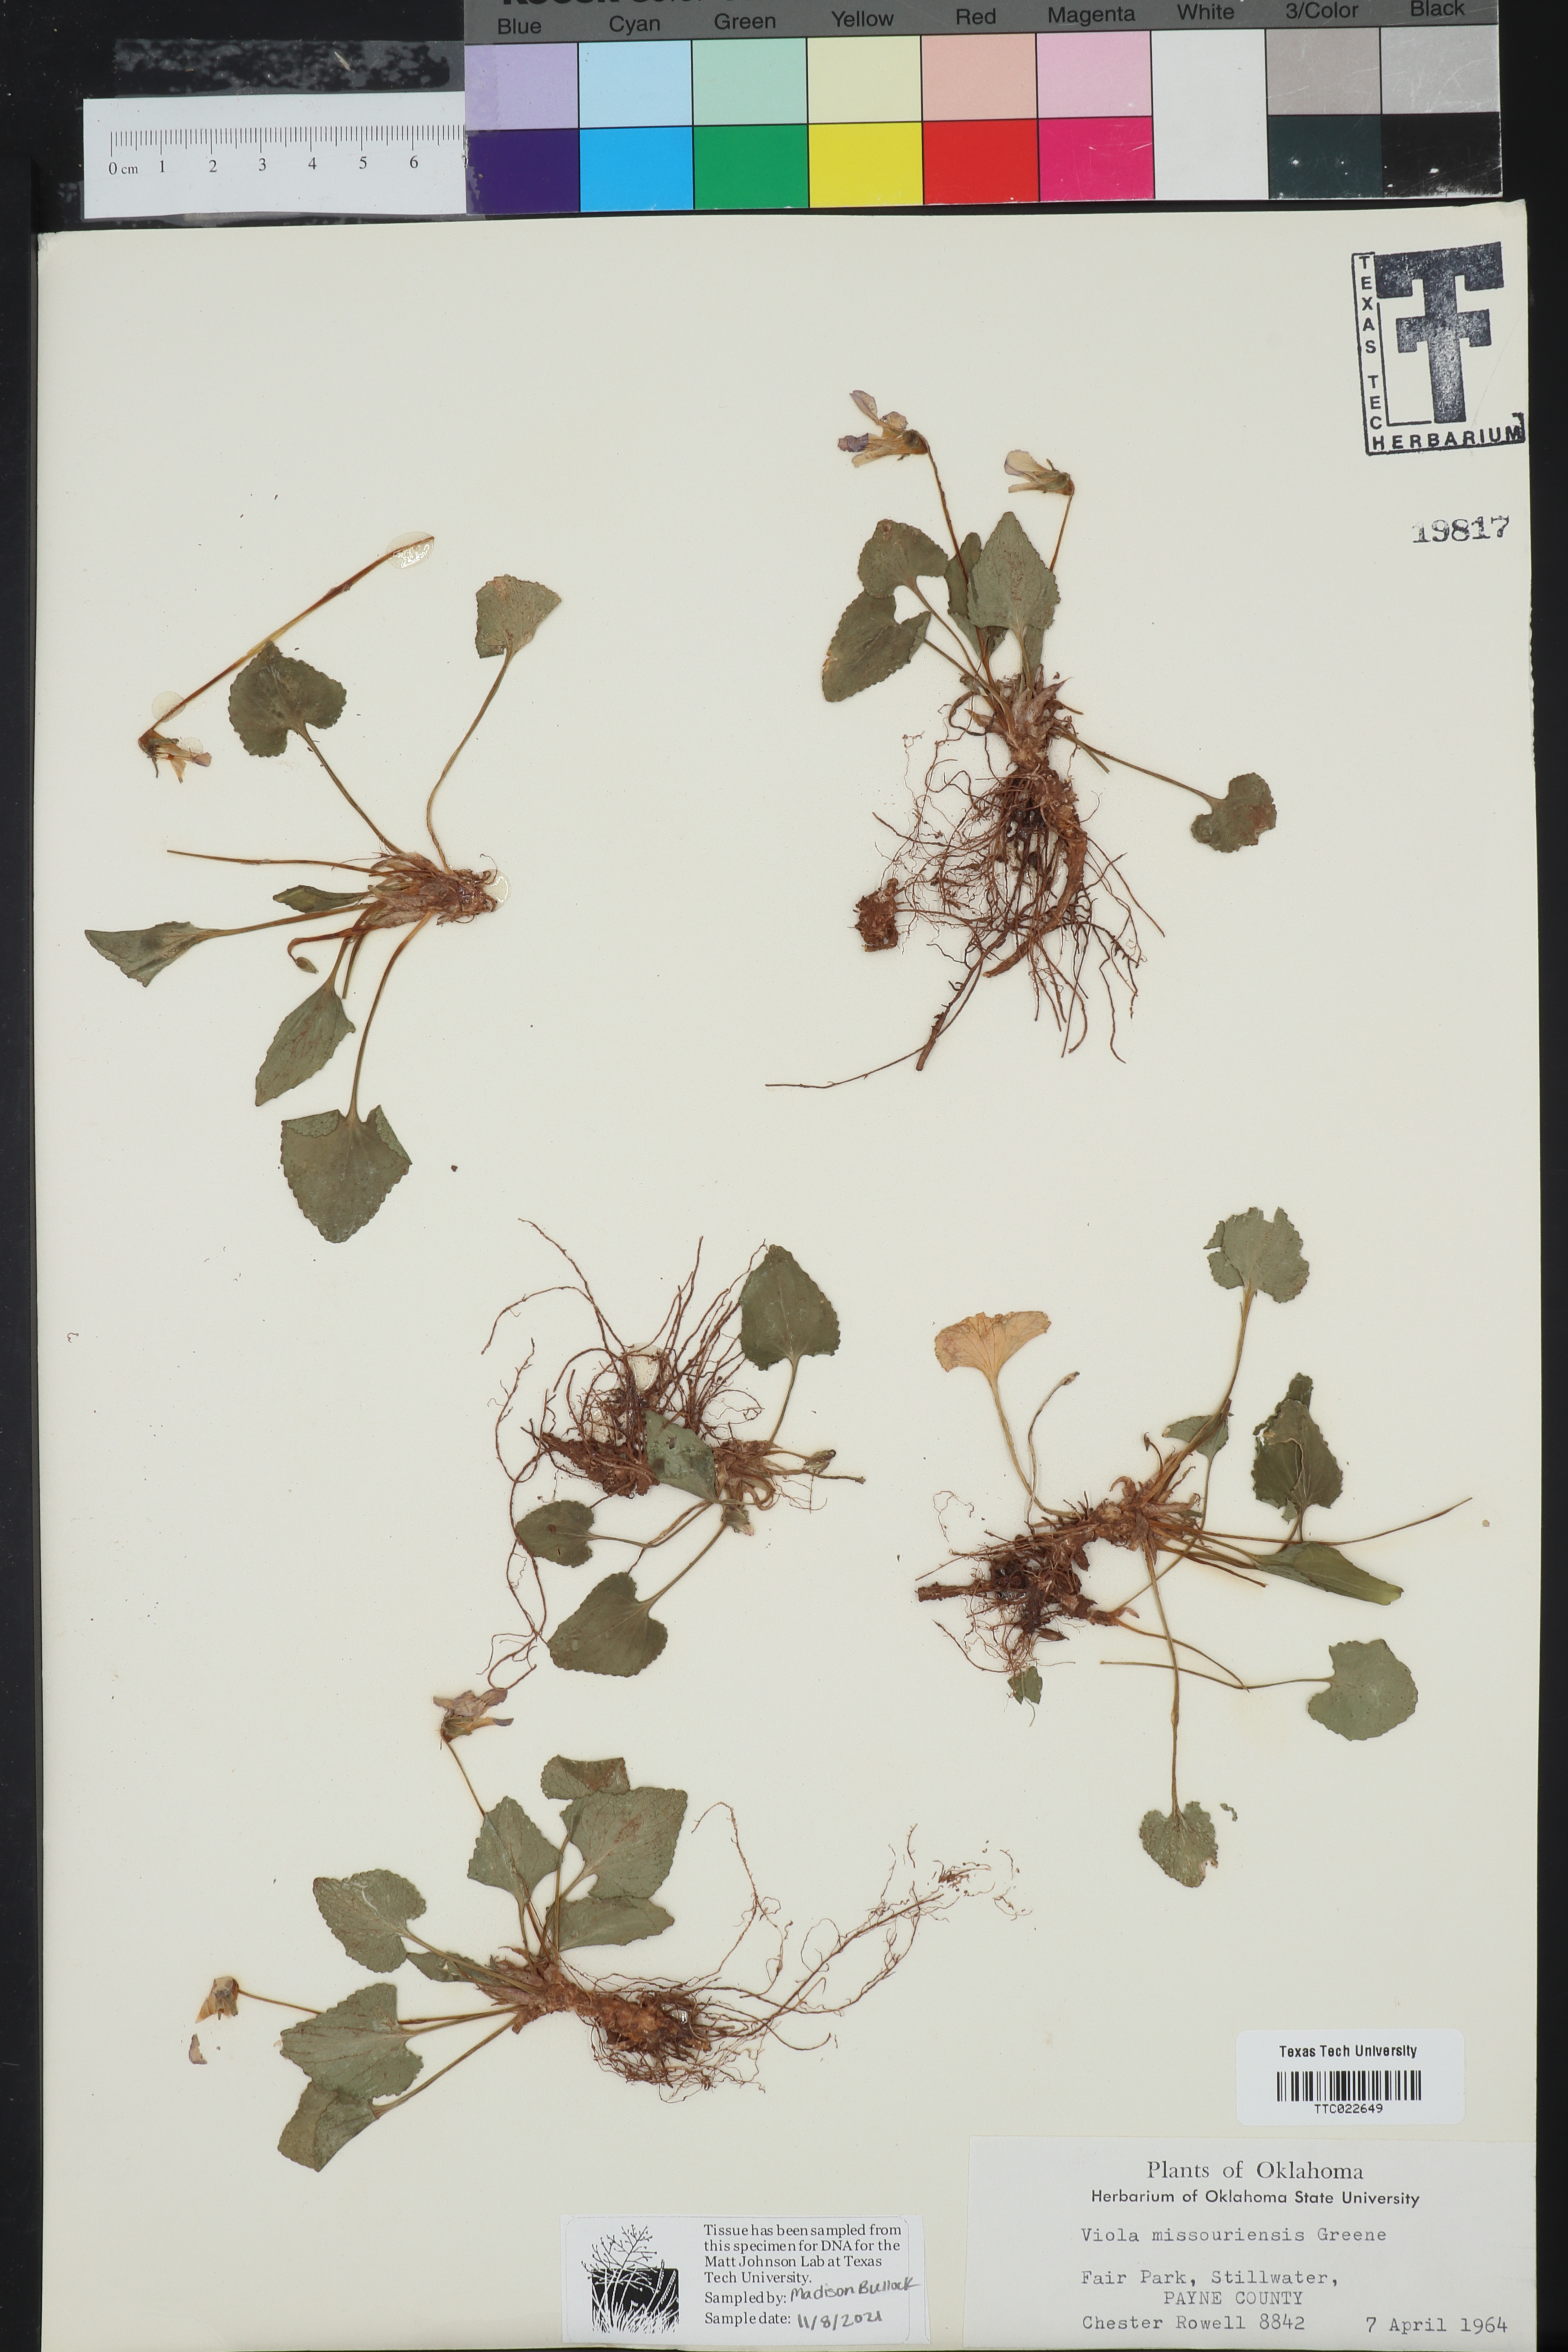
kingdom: Plantae
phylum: Tracheophyta
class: Magnoliopsida
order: Malpighiales
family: Violaceae
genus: Viola
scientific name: Viola missouriensis
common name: Missouri violet
